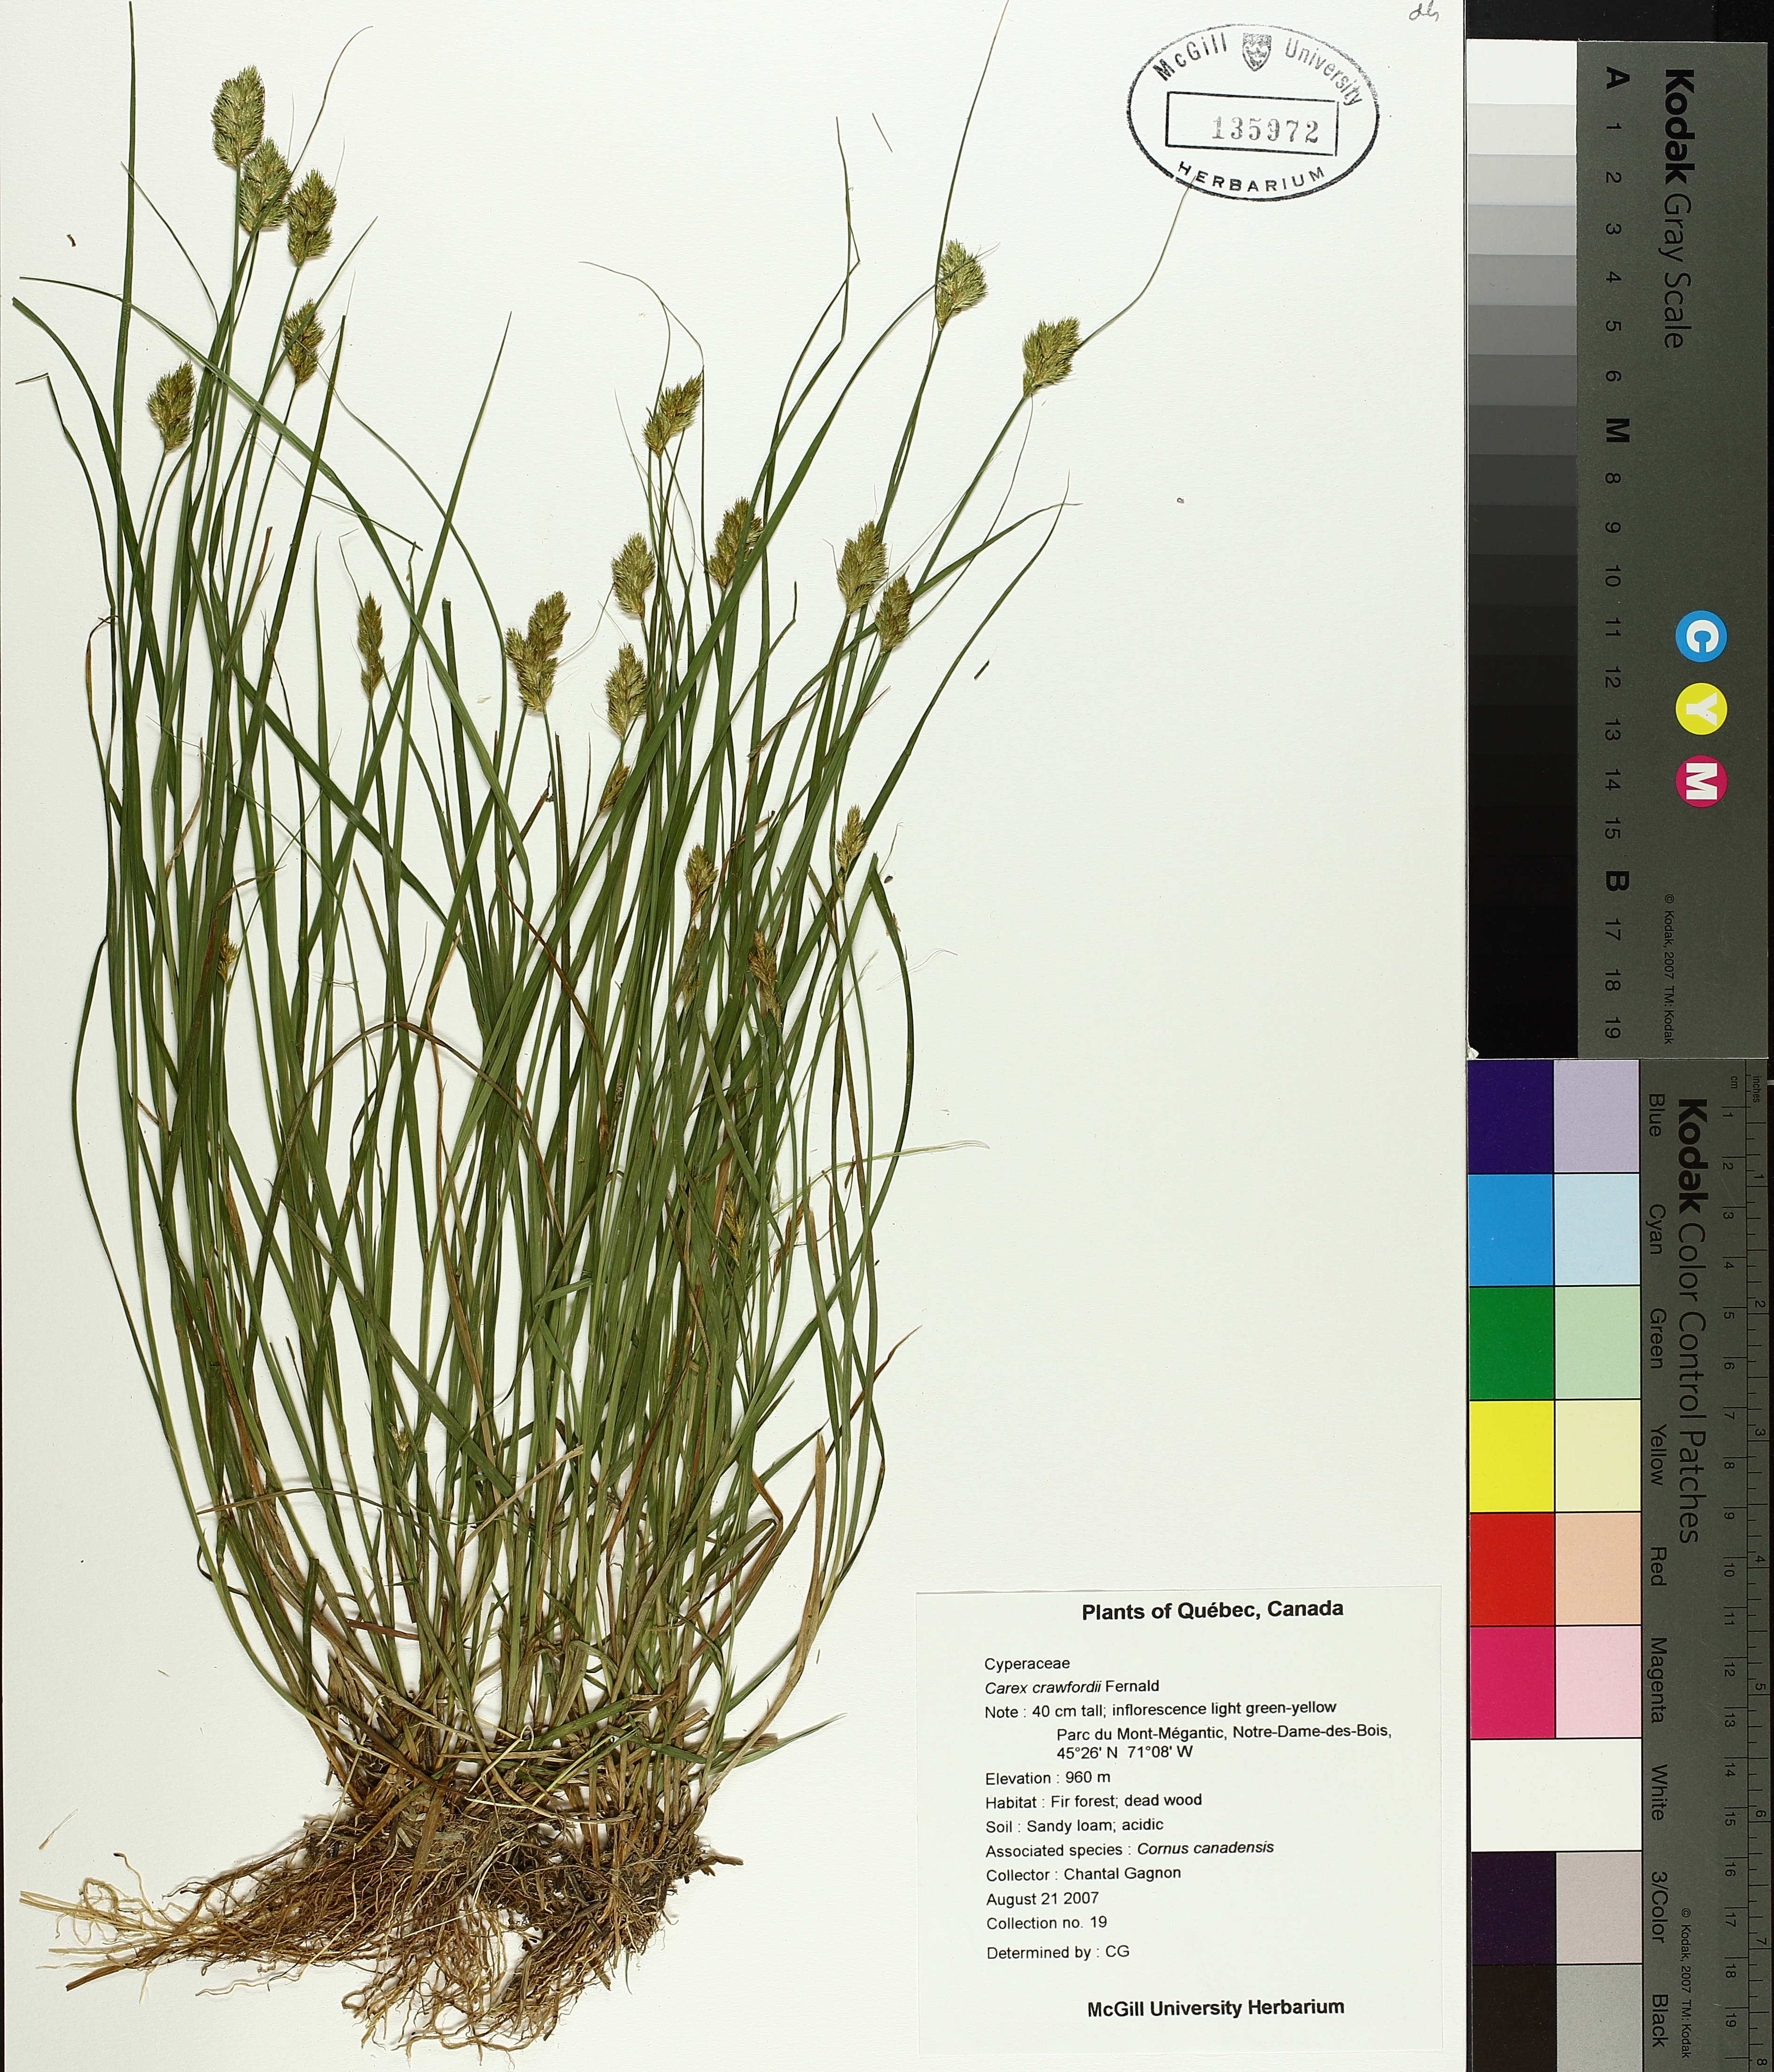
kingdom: Plantae
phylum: Tracheophyta
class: Liliopsida
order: Poales
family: Cyperaceae
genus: Carex
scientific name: Carex crawfordii
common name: Crawford's sedge
